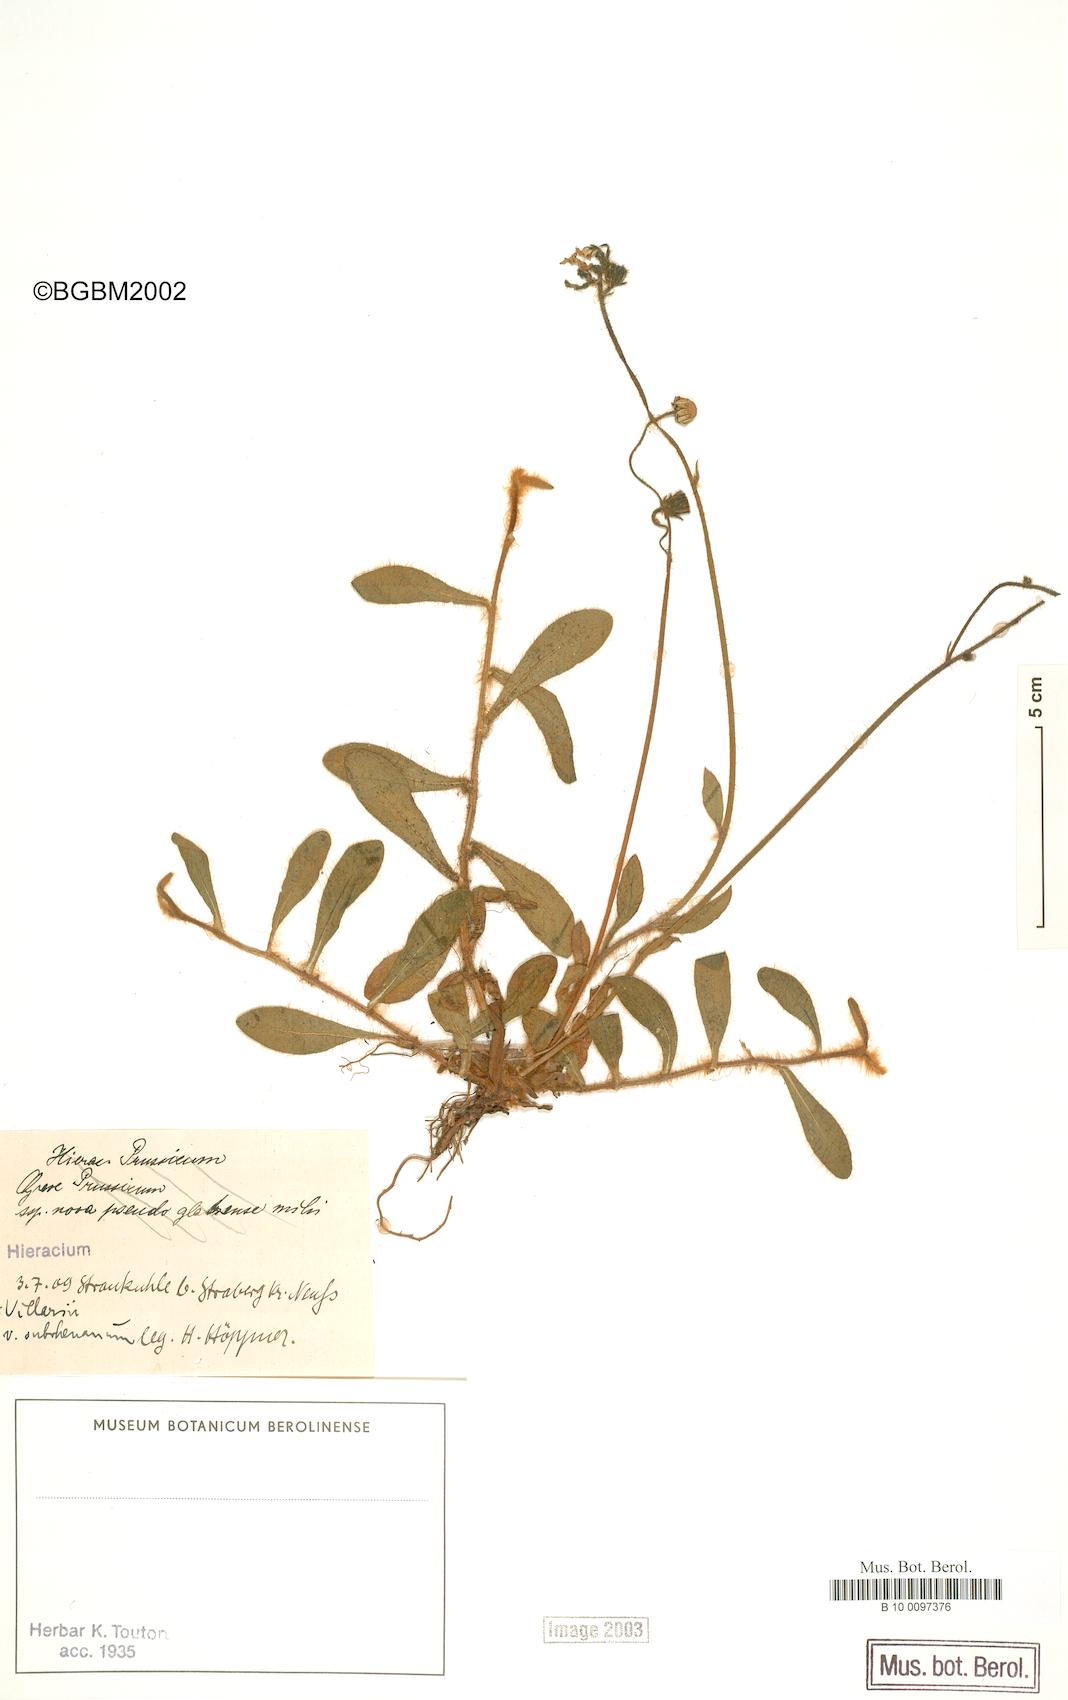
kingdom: Plantae
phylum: Tracheophyta
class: Magnoliopsida
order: Asterales
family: Asteraceae
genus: Pilosella
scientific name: Pilosella acutifolia
